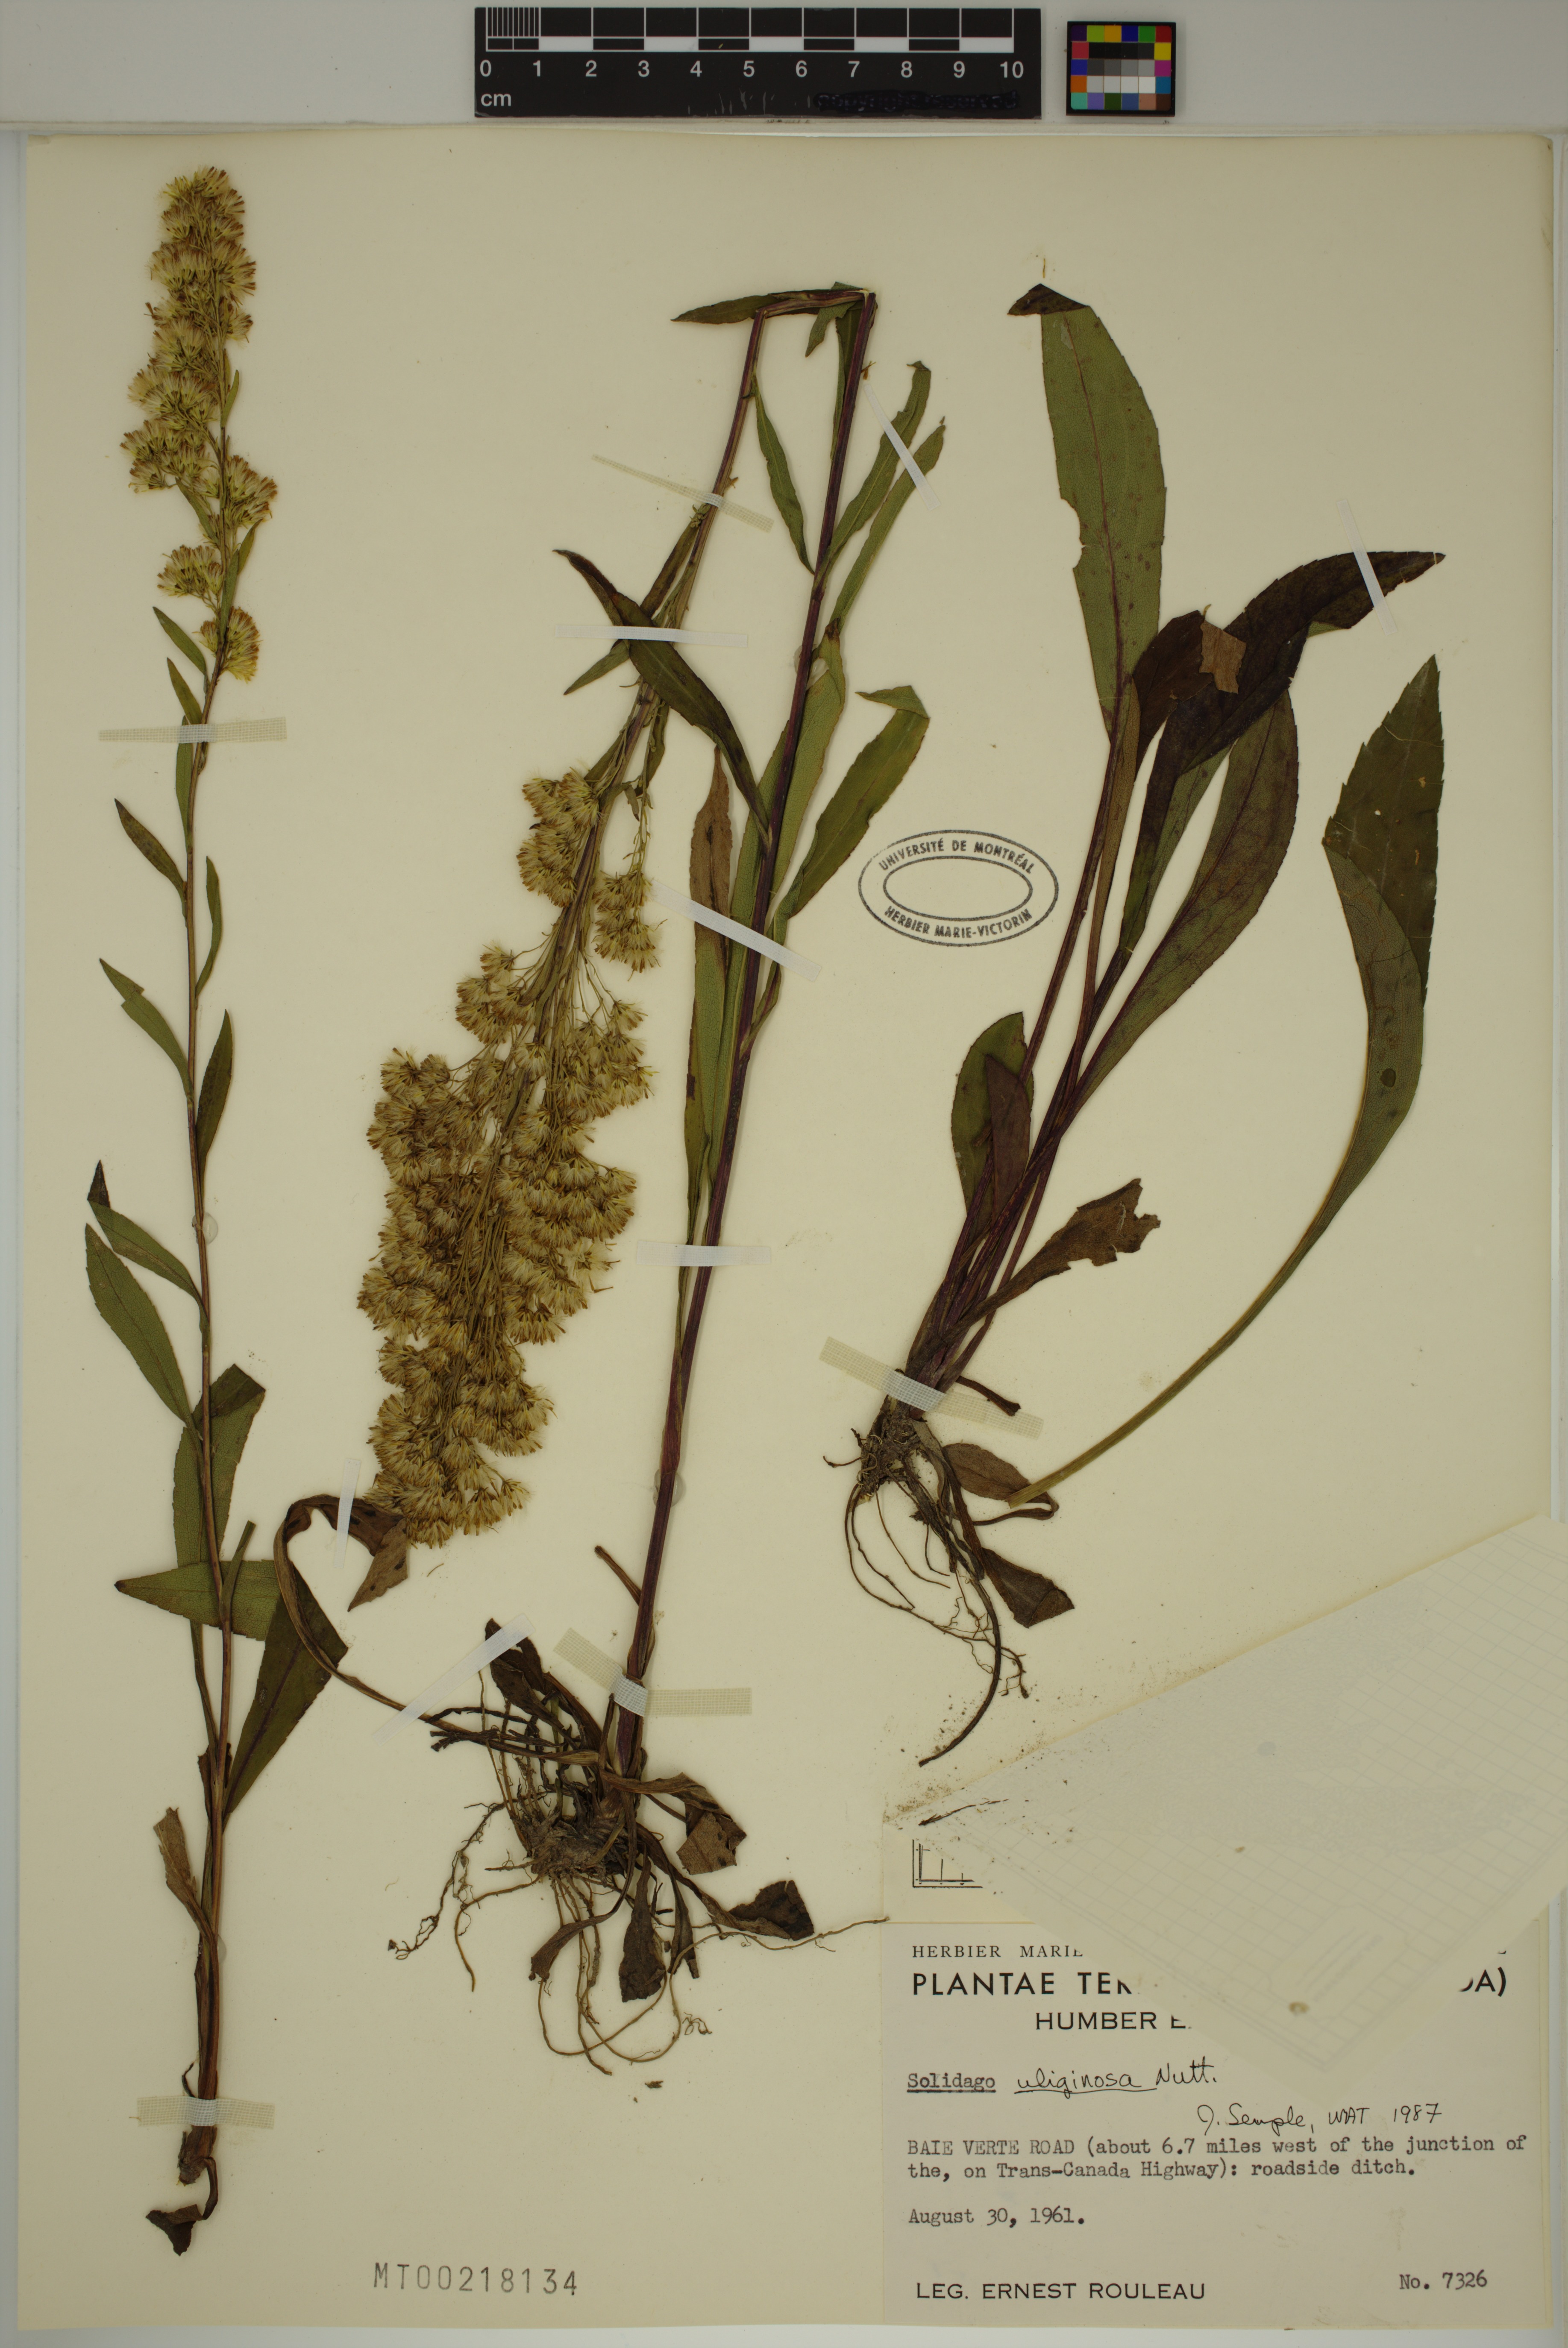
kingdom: Plantae
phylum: Tracheophyta
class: Magnoliopsida
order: Asterales
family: Asteraceae
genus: Solidago
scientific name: Solidago uliginosa
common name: Bog goldenrod
